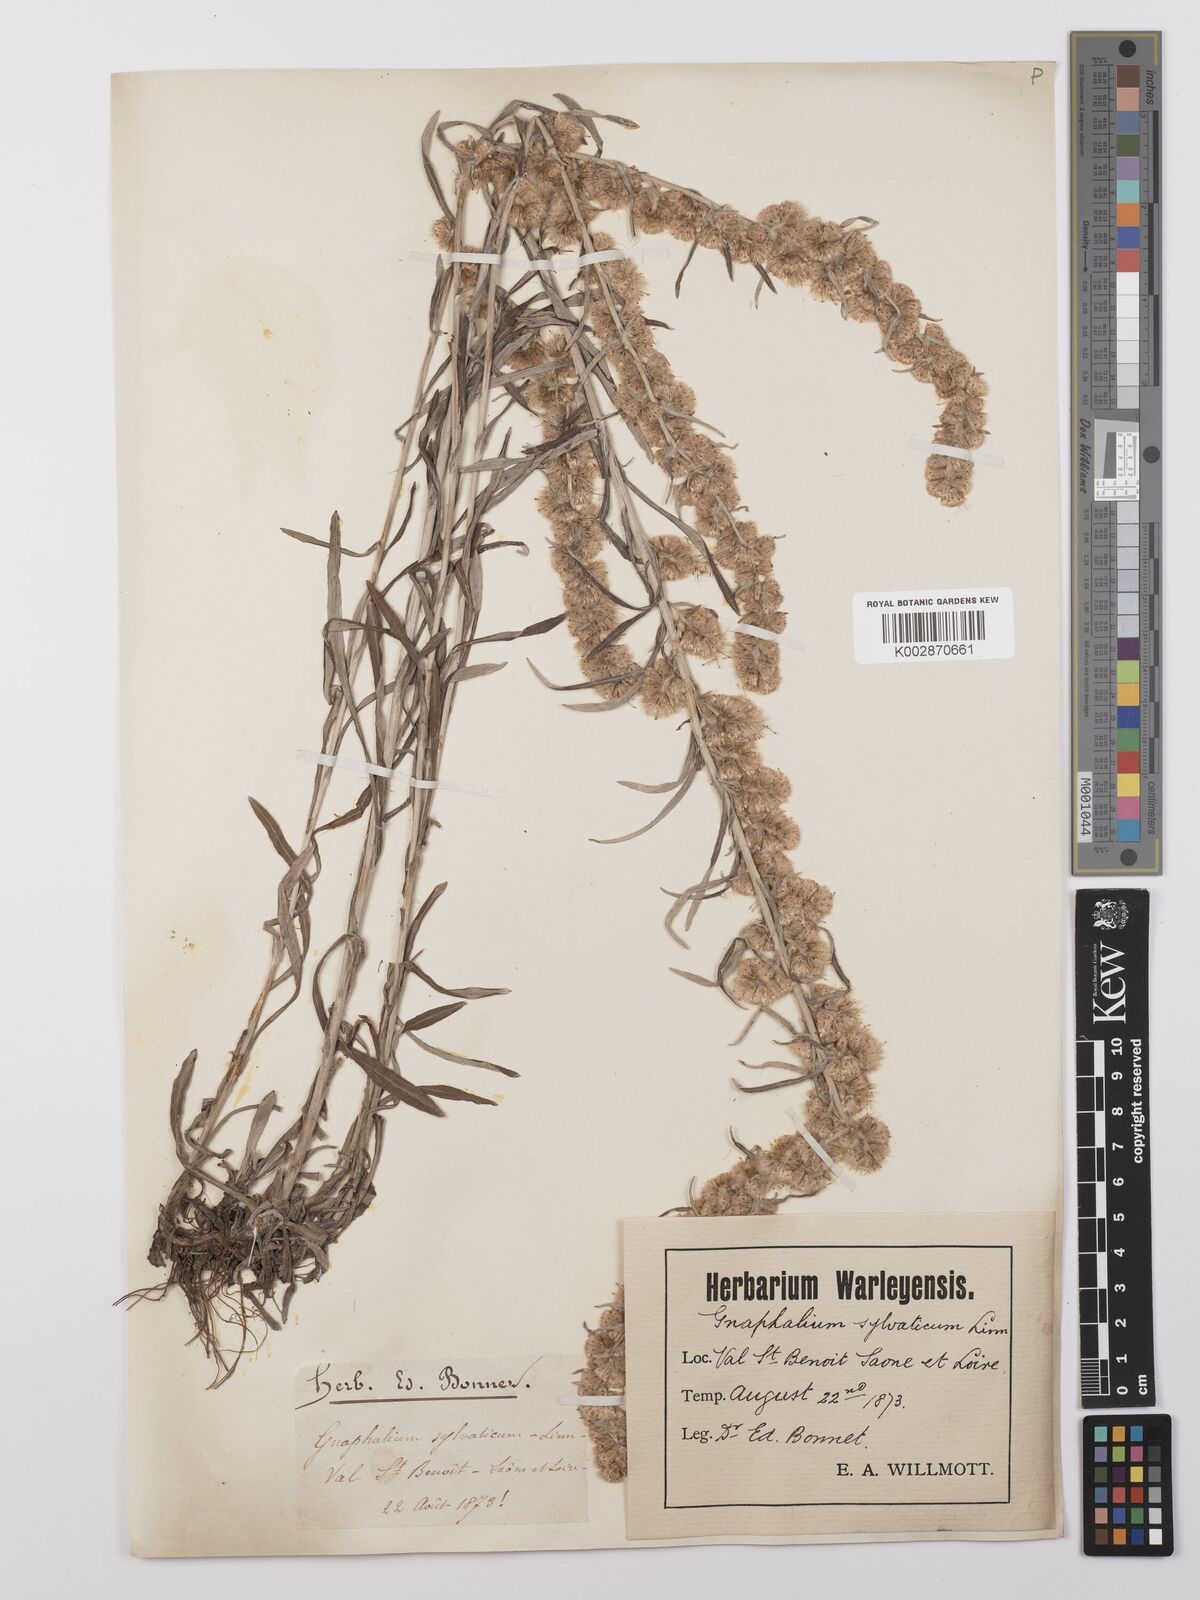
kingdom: Plantae
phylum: Tracheophyta
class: Magnoliopsida
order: Asterales
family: Asteraceae
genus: Omalotheca
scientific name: Omalotheca sylvatica
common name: Heath cudweed
